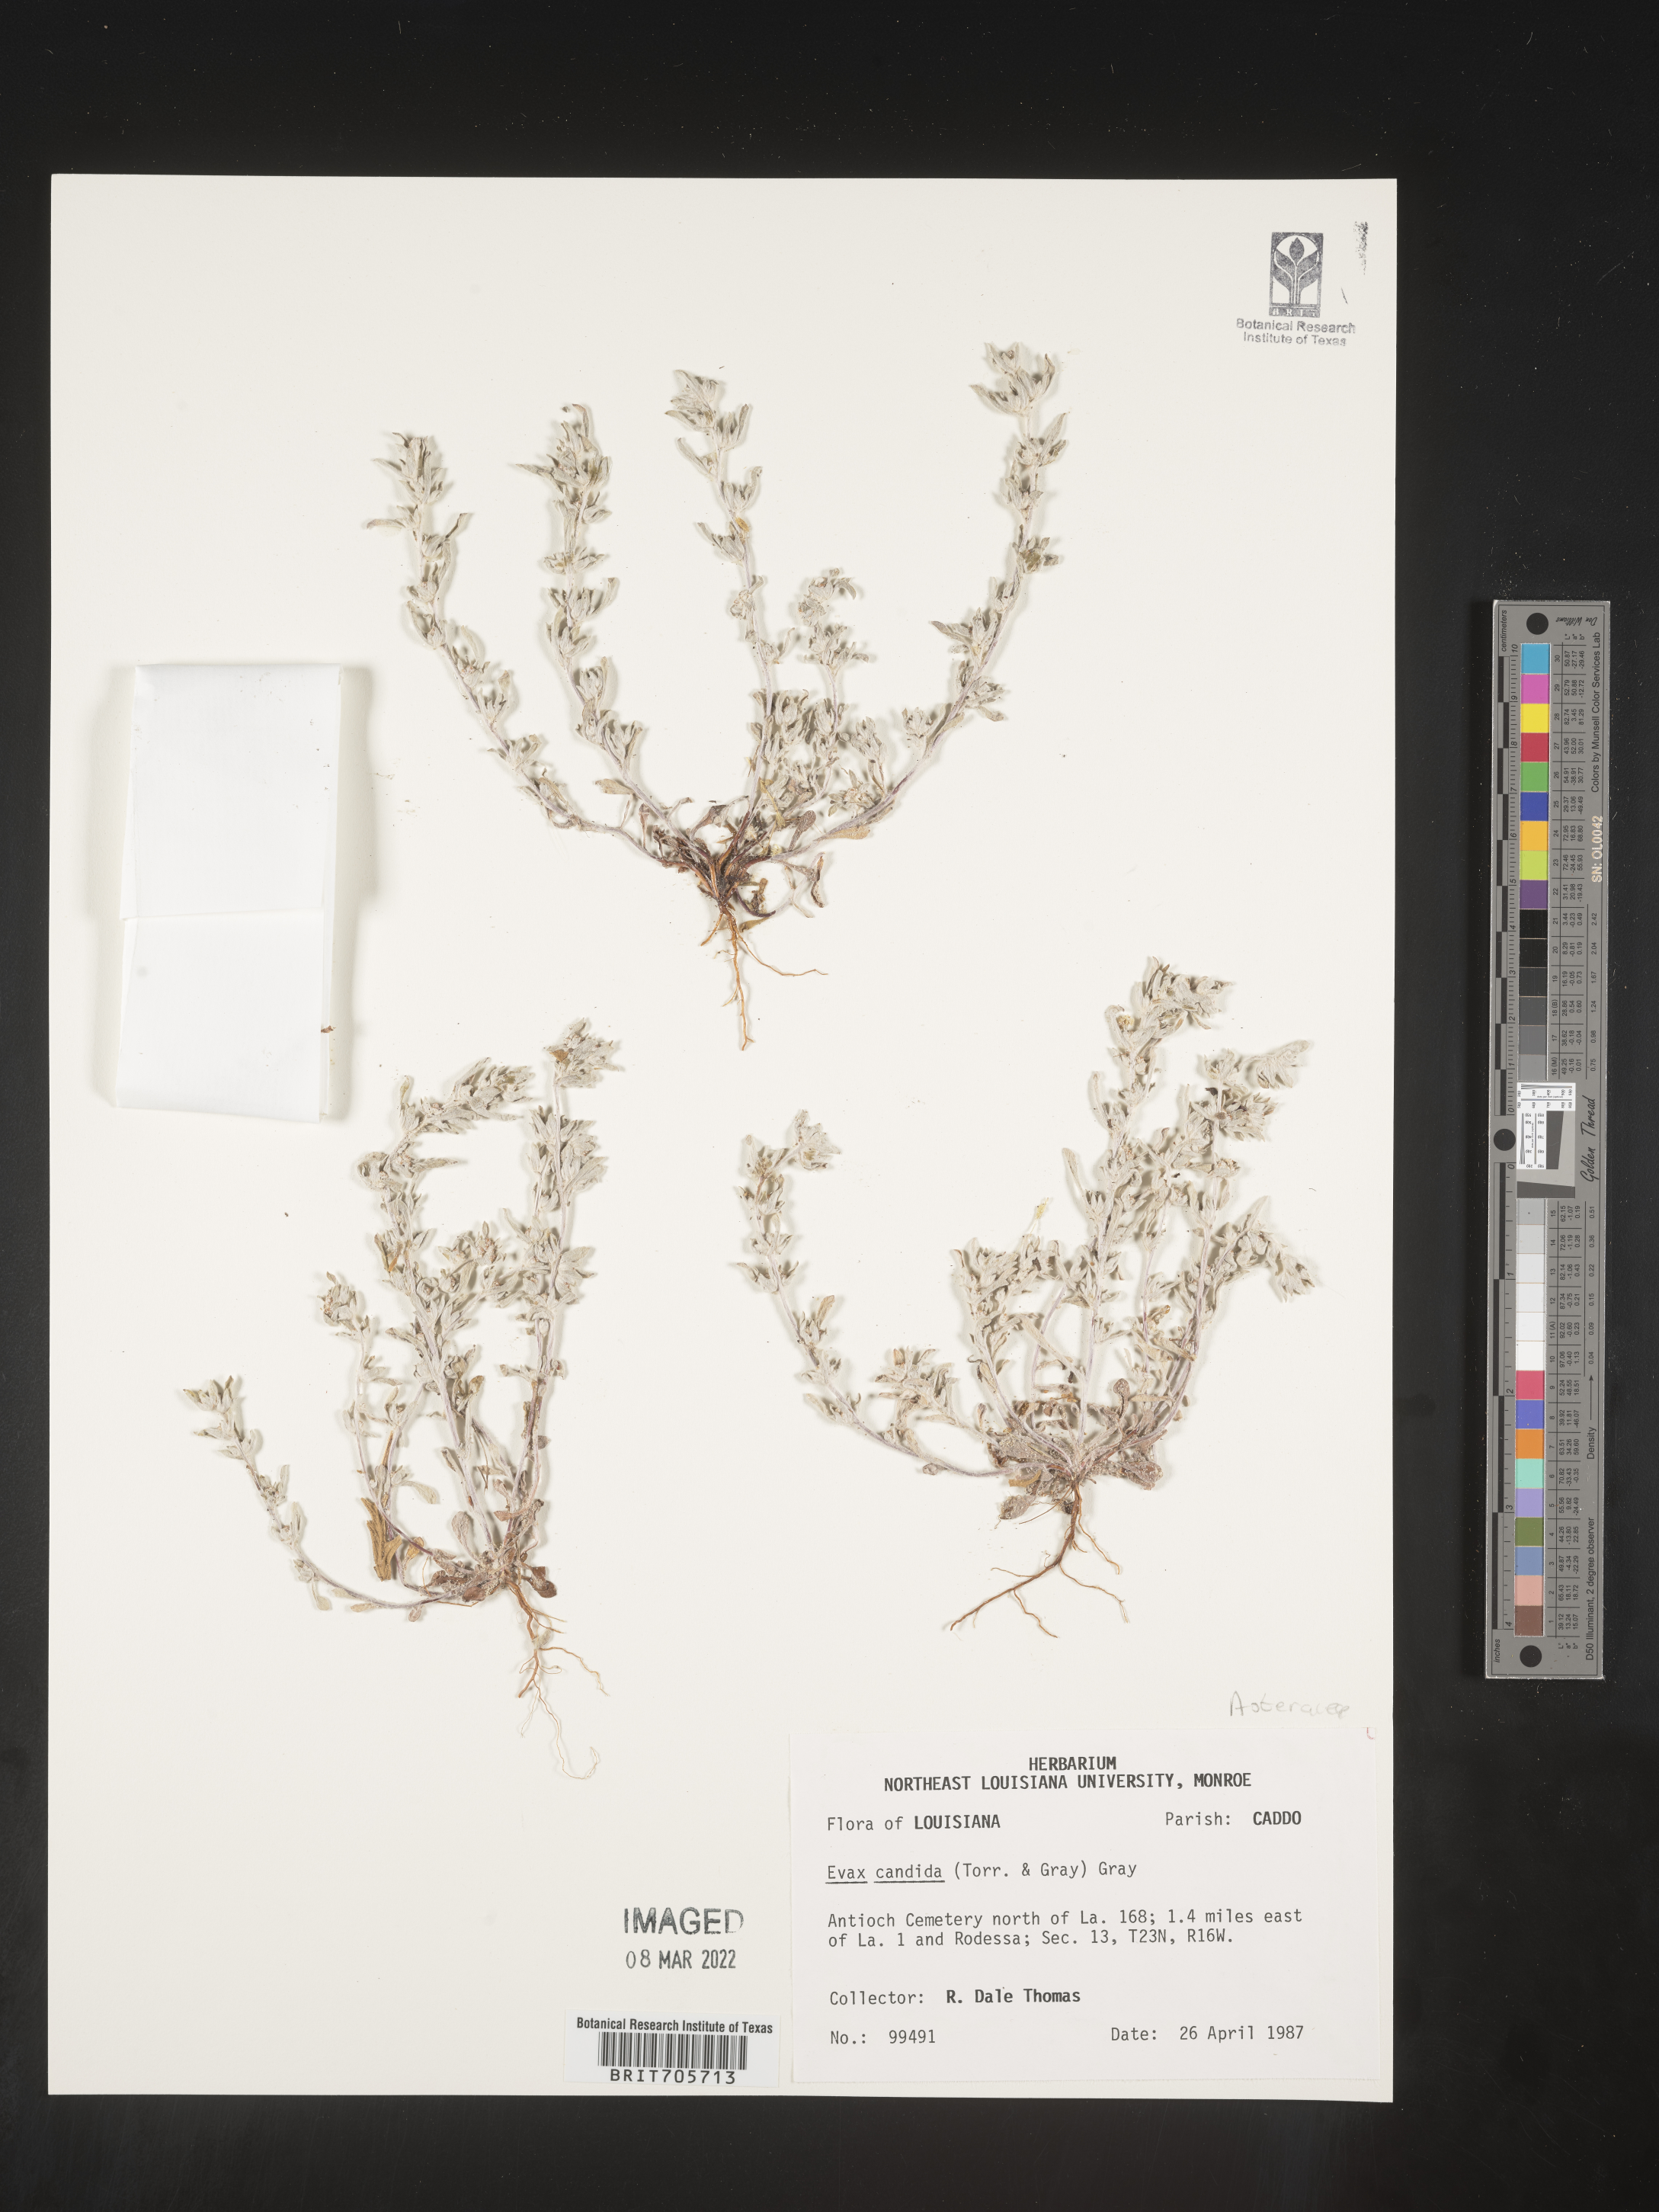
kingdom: Plantae
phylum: Tracheophyta
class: Magnoliopsida
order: Asterales
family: Asteraceae
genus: Diaperia
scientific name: Diaperia candida
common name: Silver rabbit-tobacco
